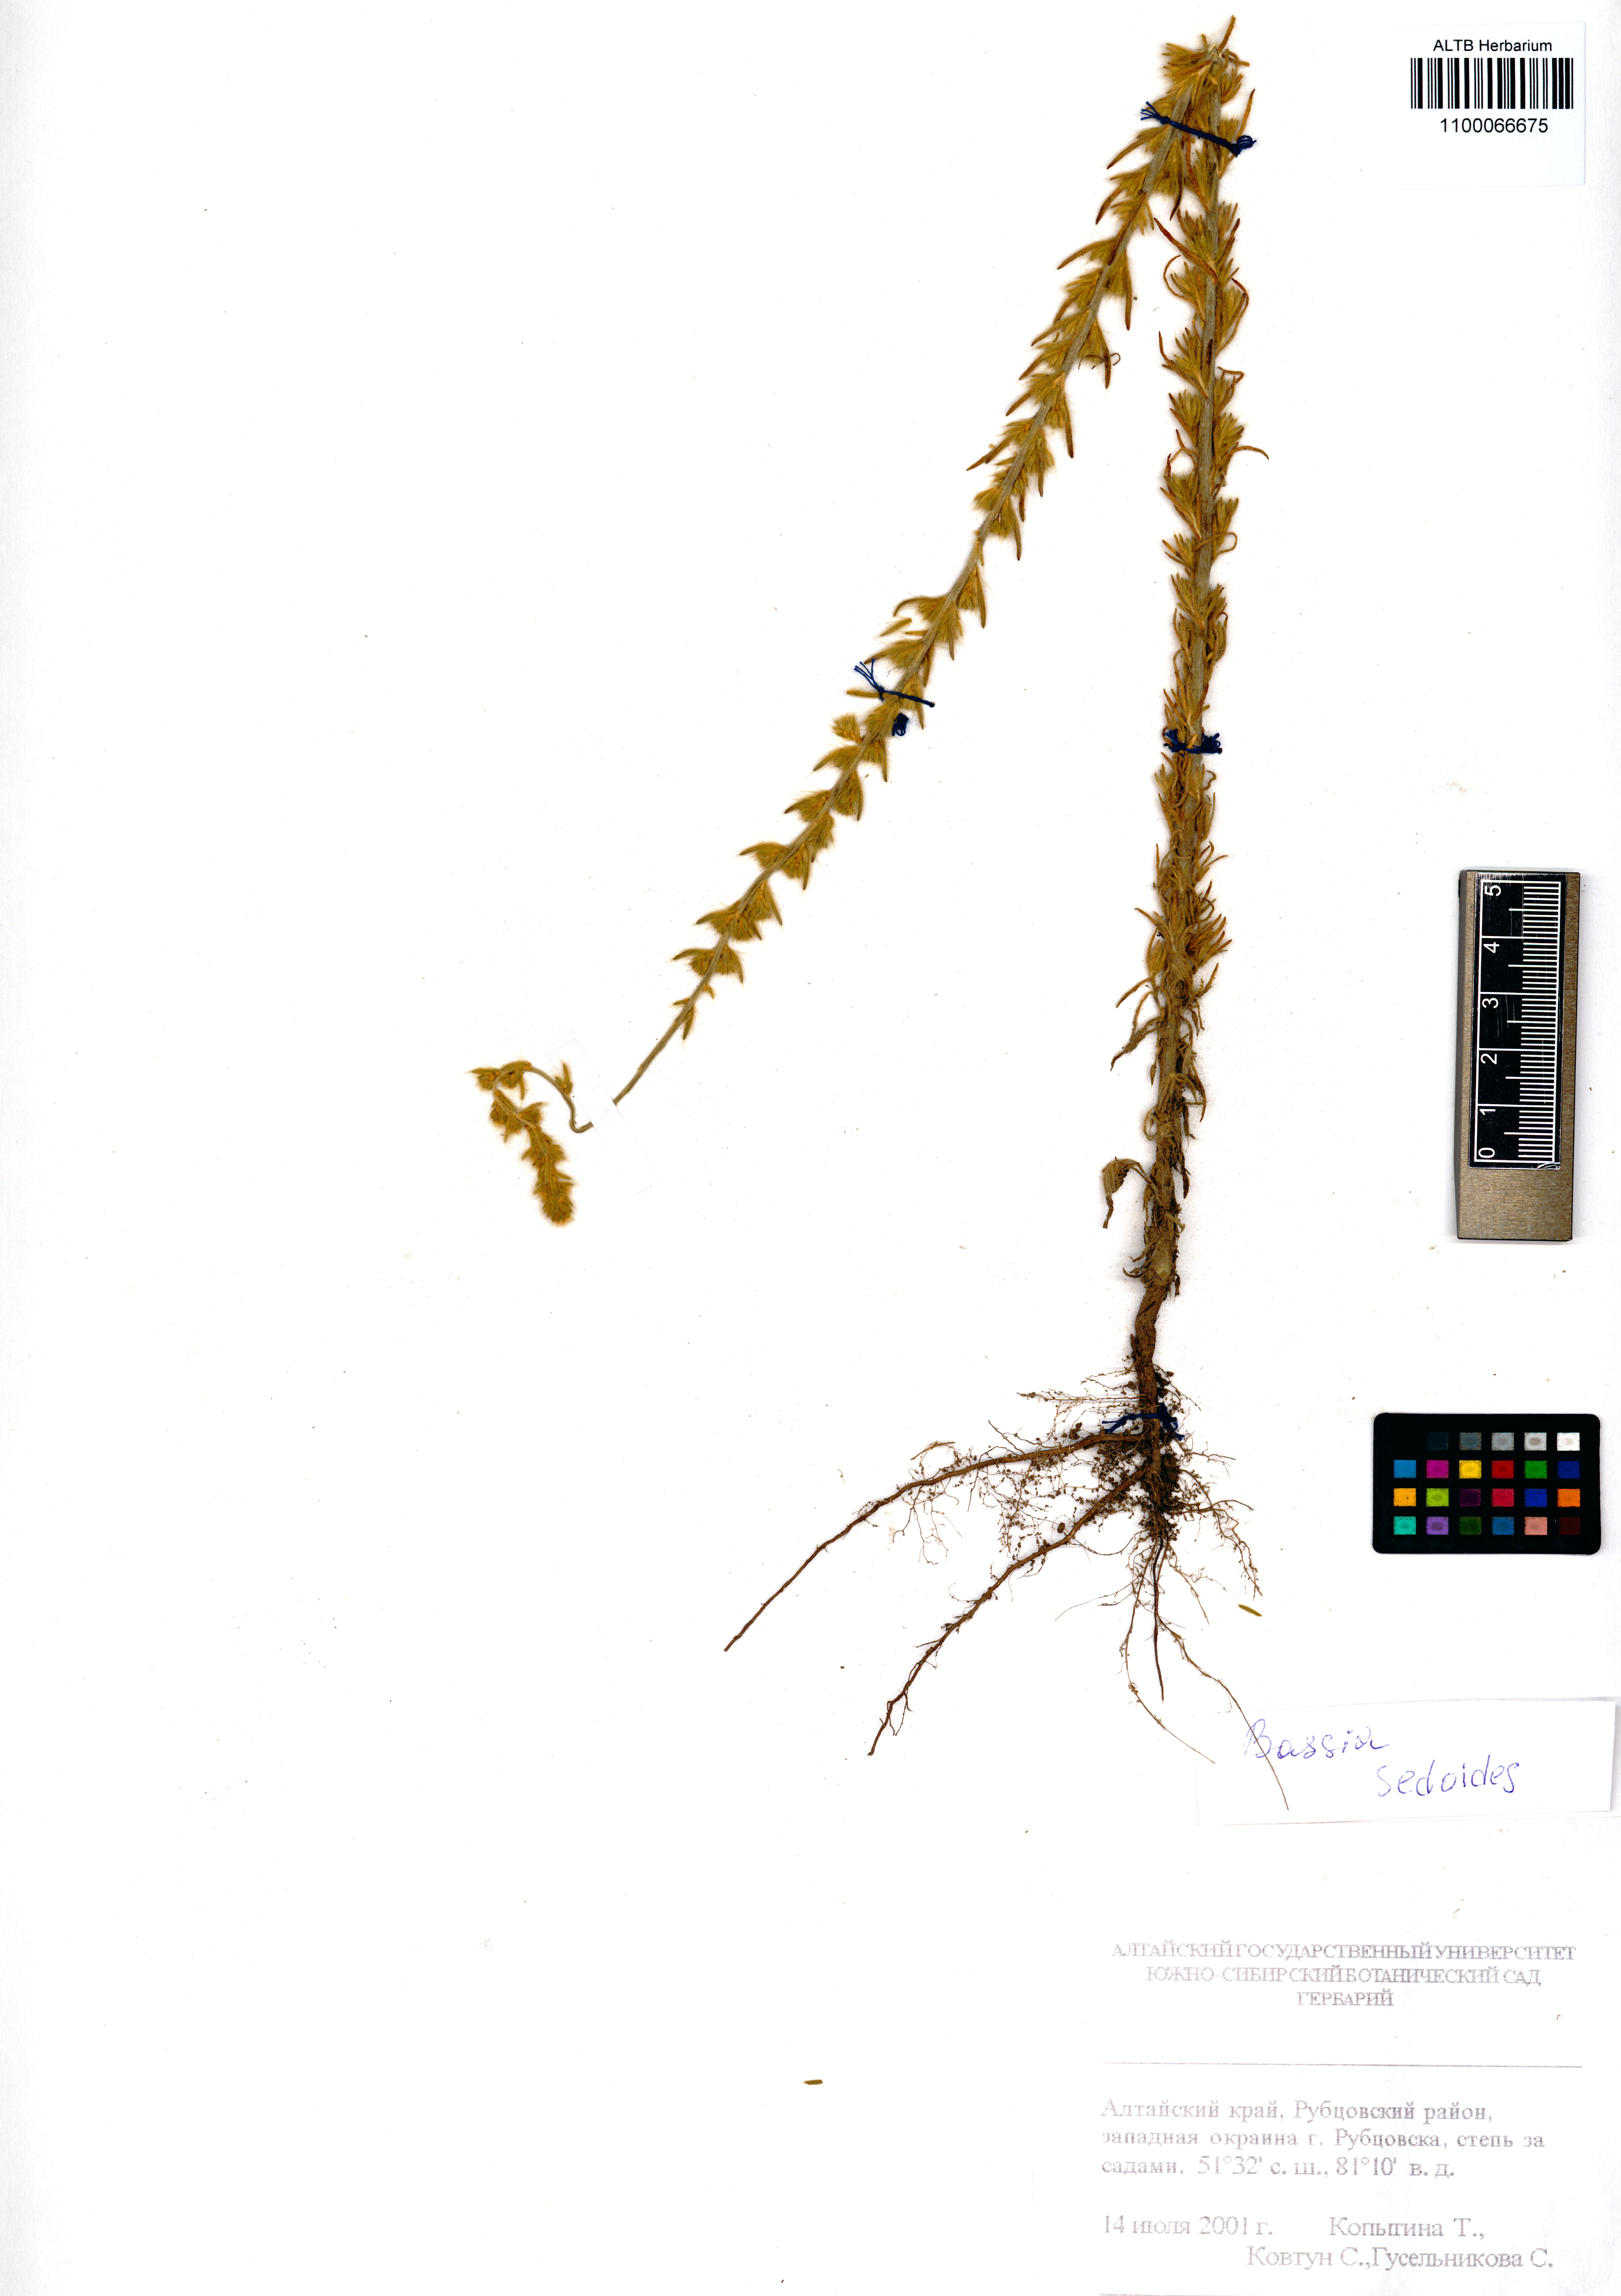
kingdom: Plantae
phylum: Tracheophyta
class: Magnoliopsida
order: Caryophyllales
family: Amaranthaceae
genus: Sedobassia
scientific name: Sedobassia sedoides
